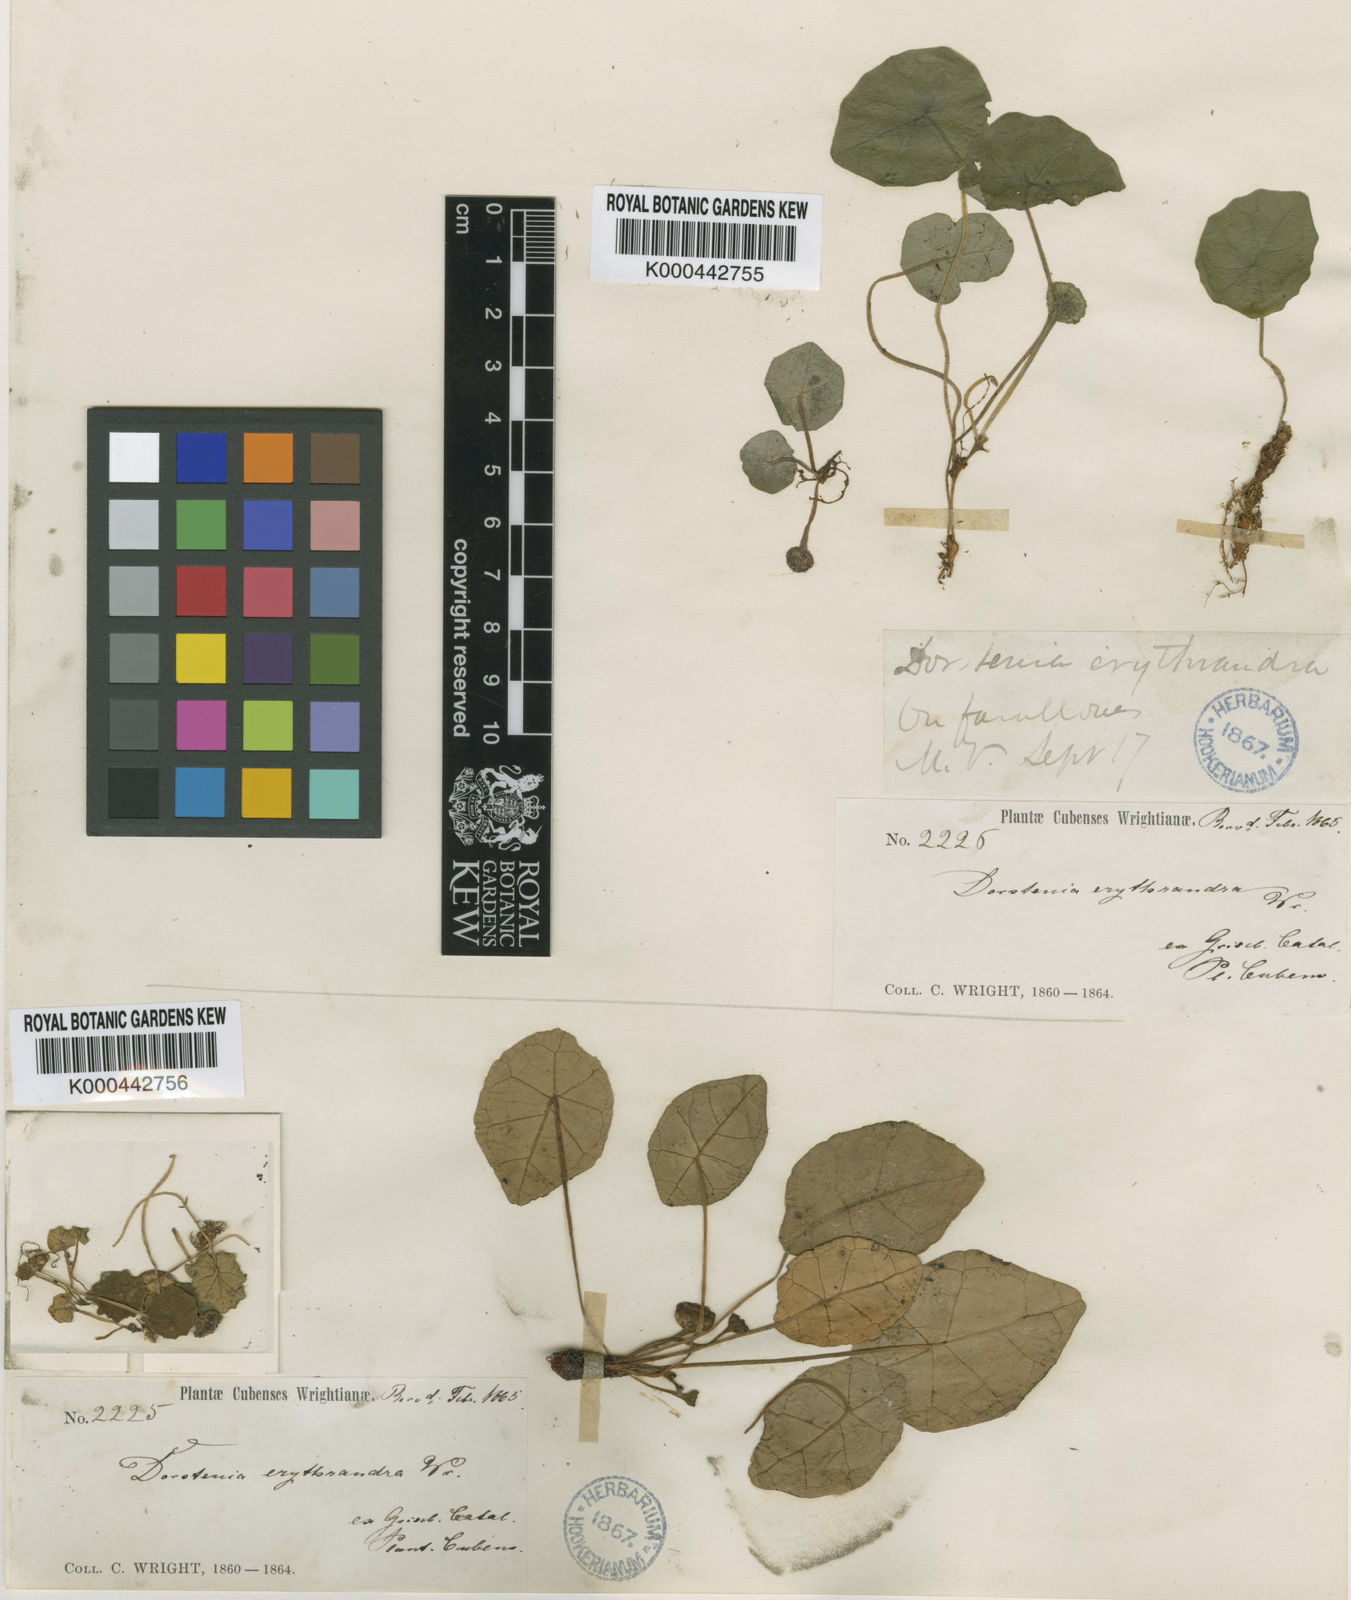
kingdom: Plantae
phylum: Tracheophyta
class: Magnoliopsida
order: Rosales
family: Moraceae
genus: Dorstenia
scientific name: Dorstenia erythrandra
